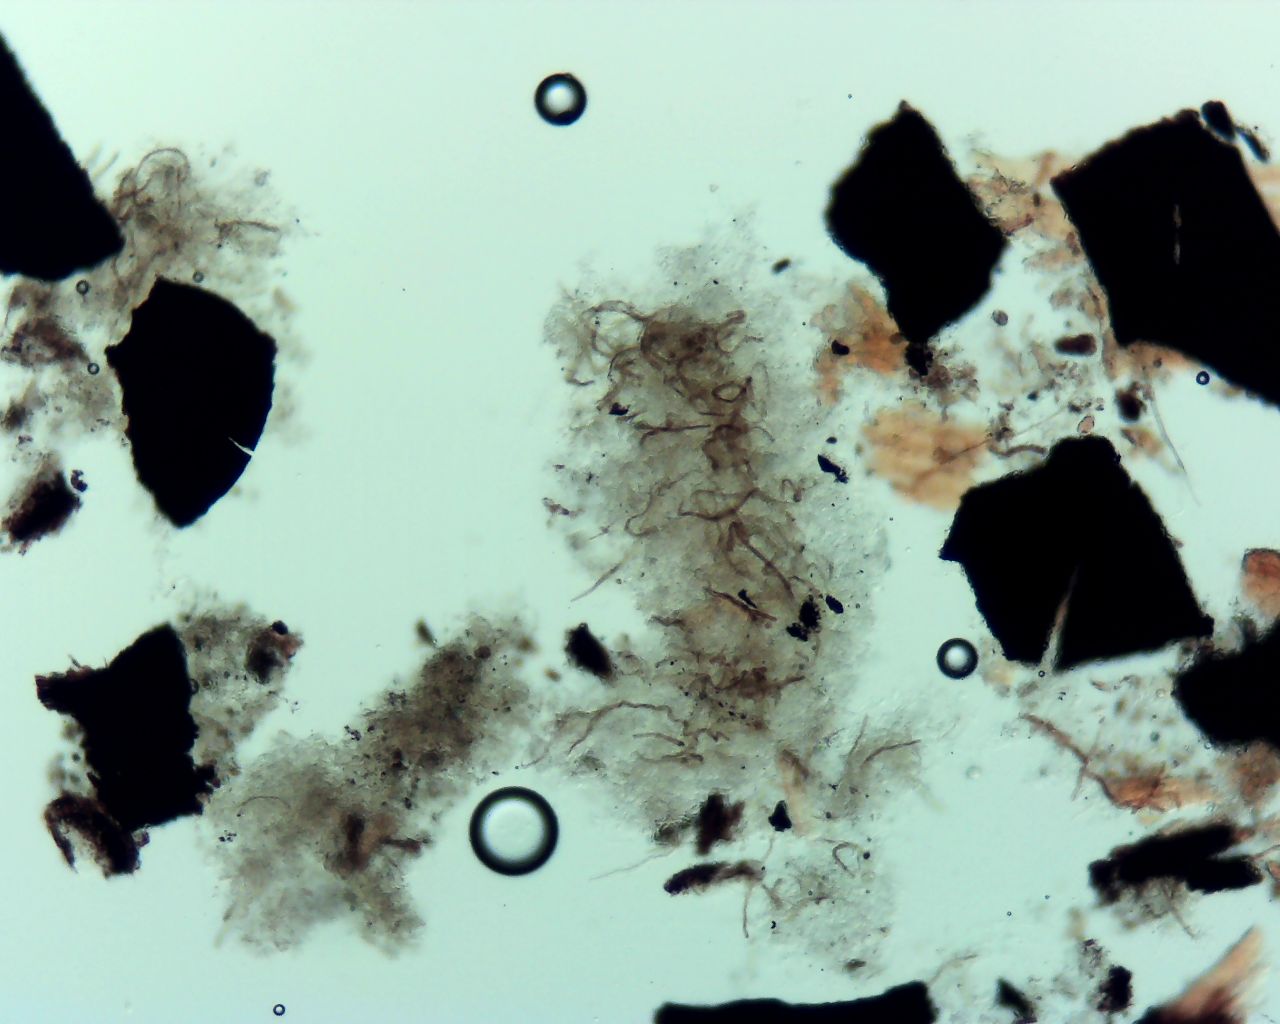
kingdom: Fungi
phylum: Ascomycota
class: Dothideomycetes
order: Mytilinidiales
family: Mytilinidiaceae
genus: Mytilinidion
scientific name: Mytilinidion rhenanum
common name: almindelig kulmusling
